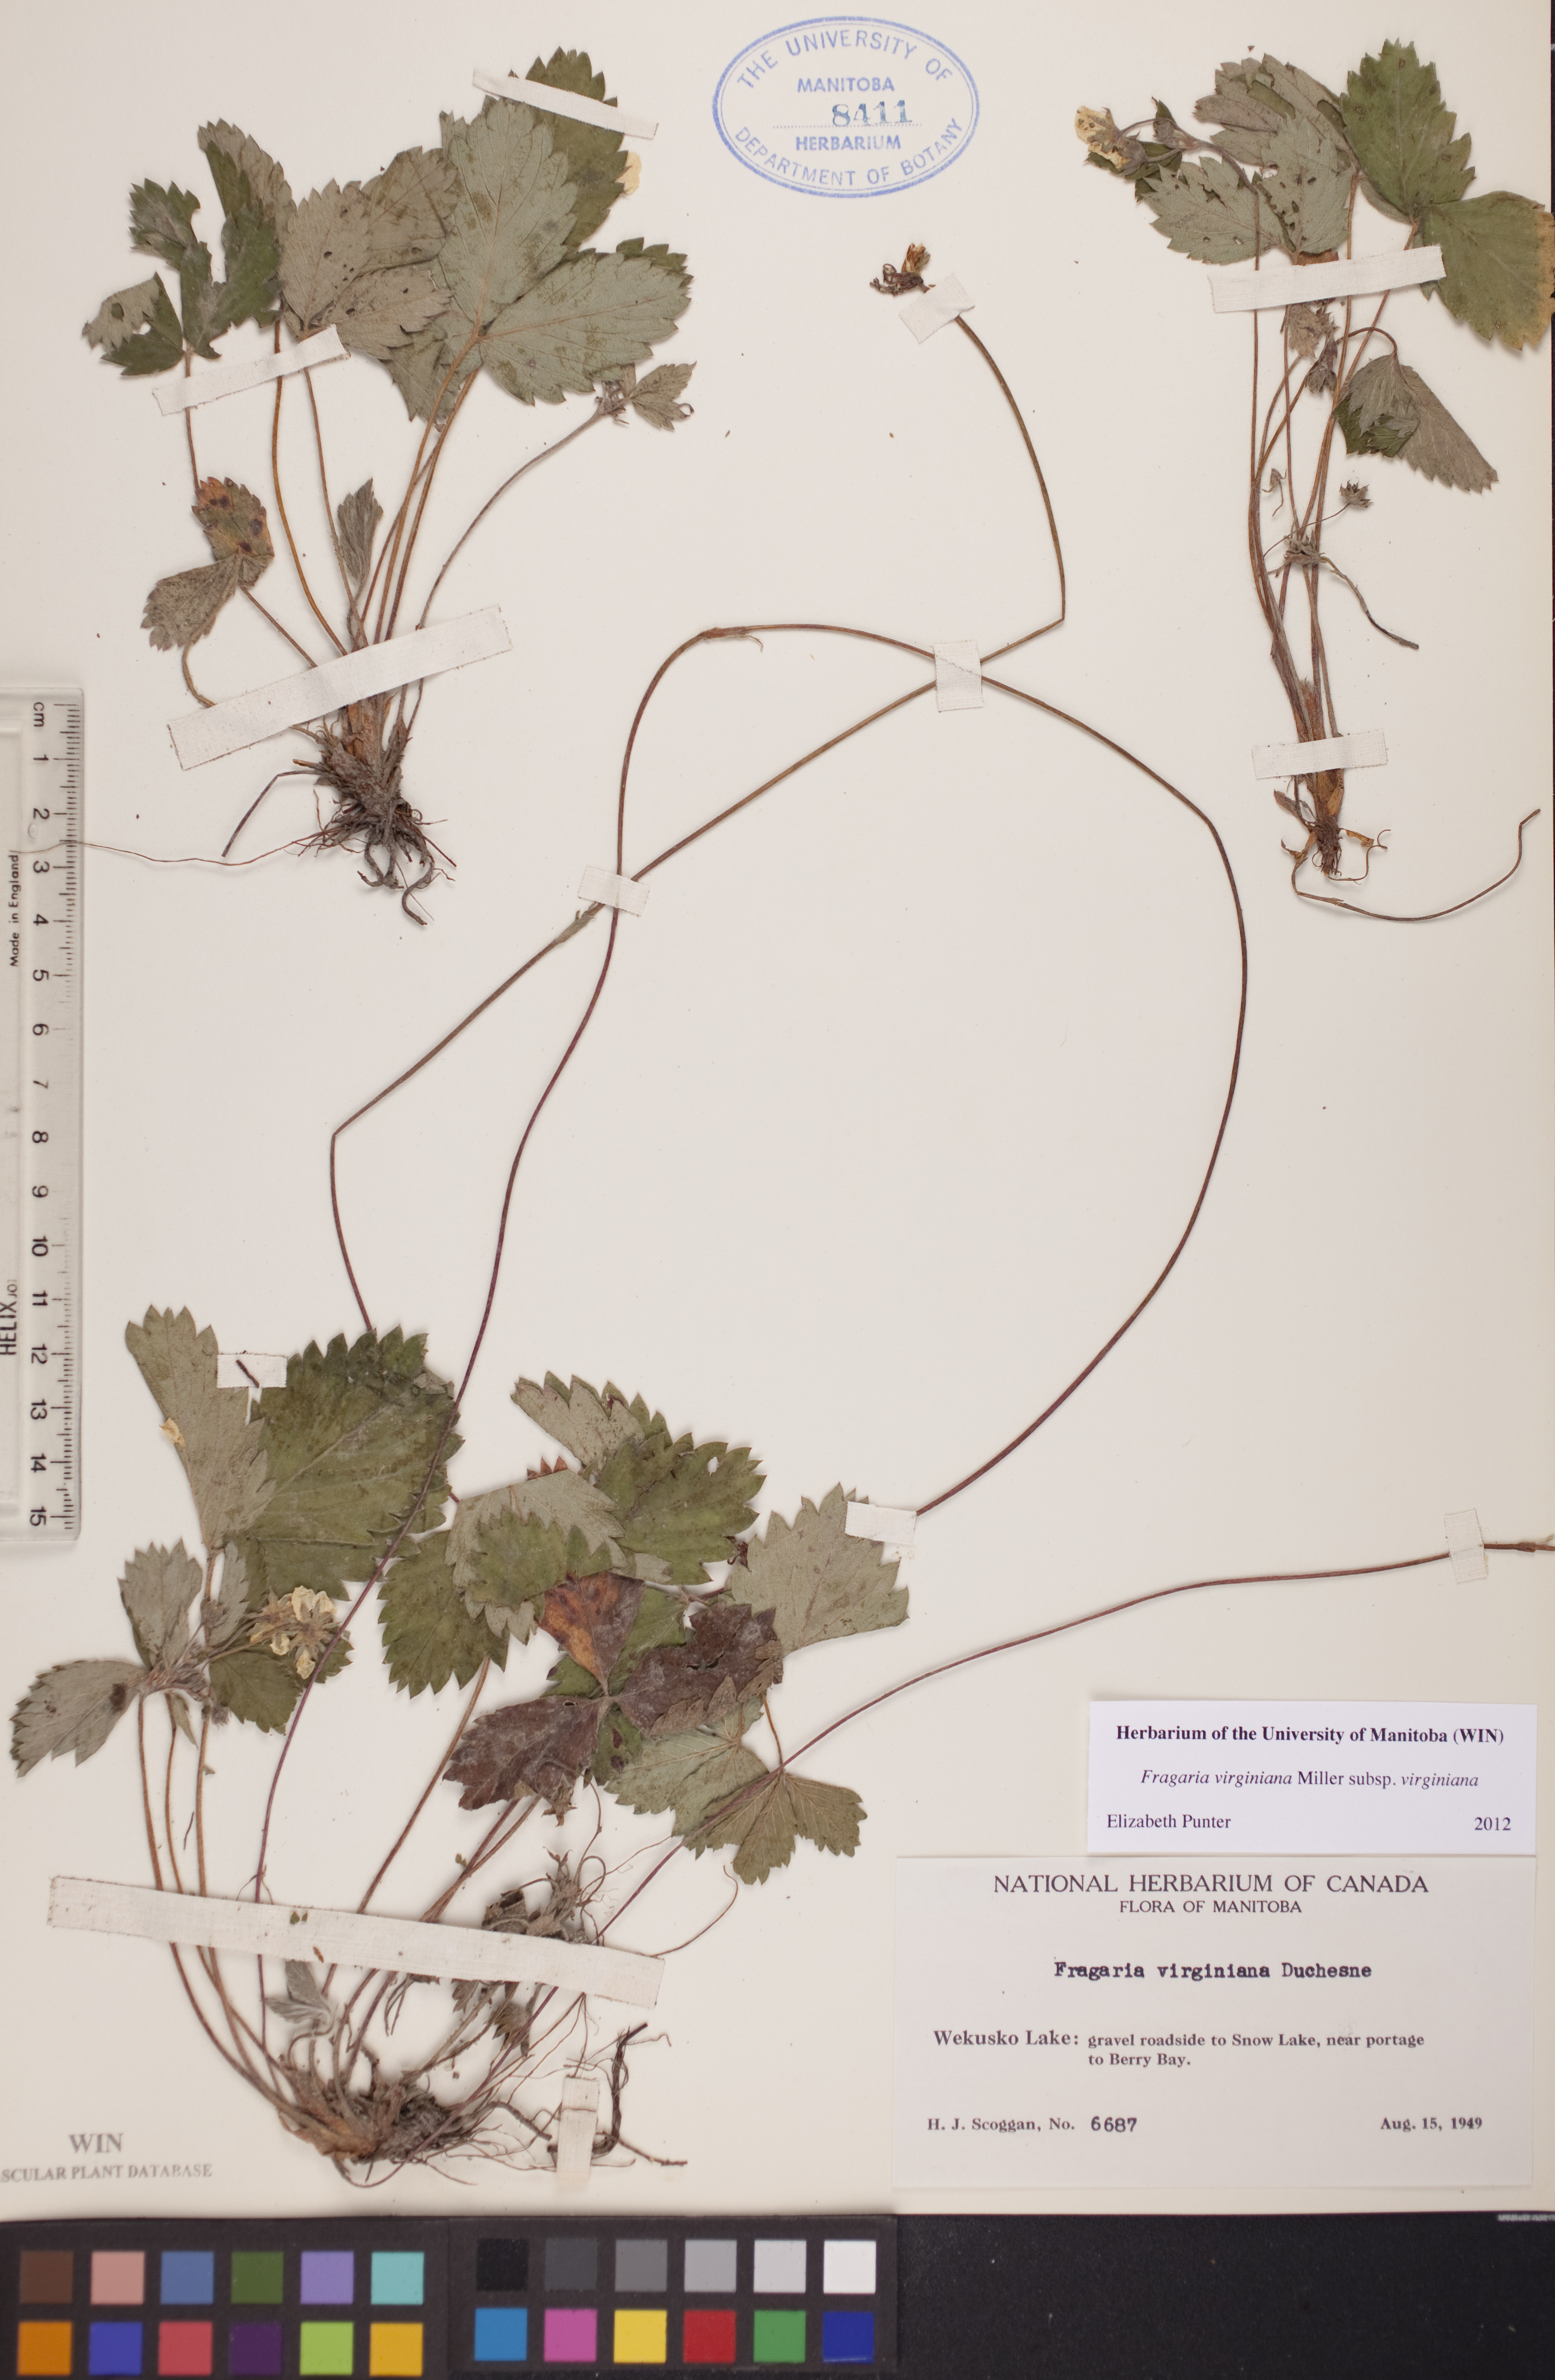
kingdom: Plantae
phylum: Tracheophyta
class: Magnoliopsida
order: Rosales
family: Rosaceae
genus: Fragaria
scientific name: Fragaria virginiana
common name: Thickleaved wild strawberry
